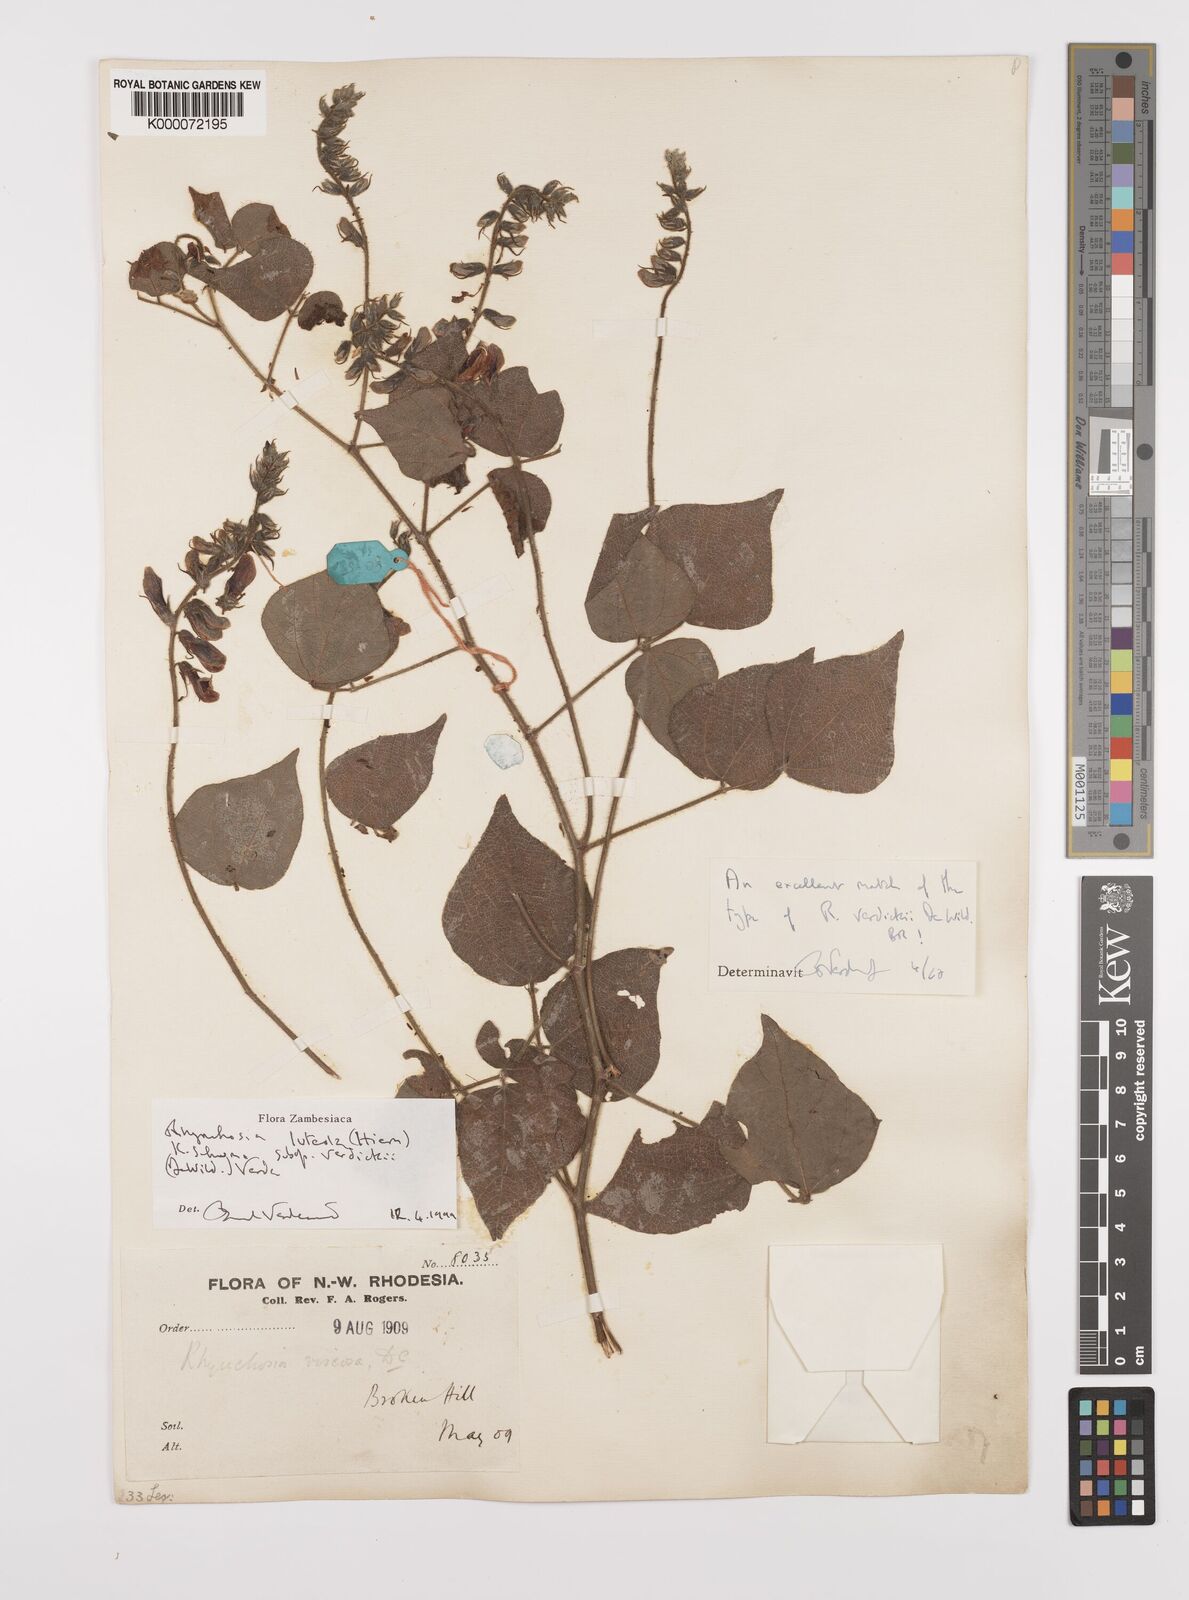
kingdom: Plantae
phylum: Tracheophyta
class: Magnoliopsida
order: Fabales
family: Fabaceae
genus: Rhynchosia
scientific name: Rhynchosia luteola
